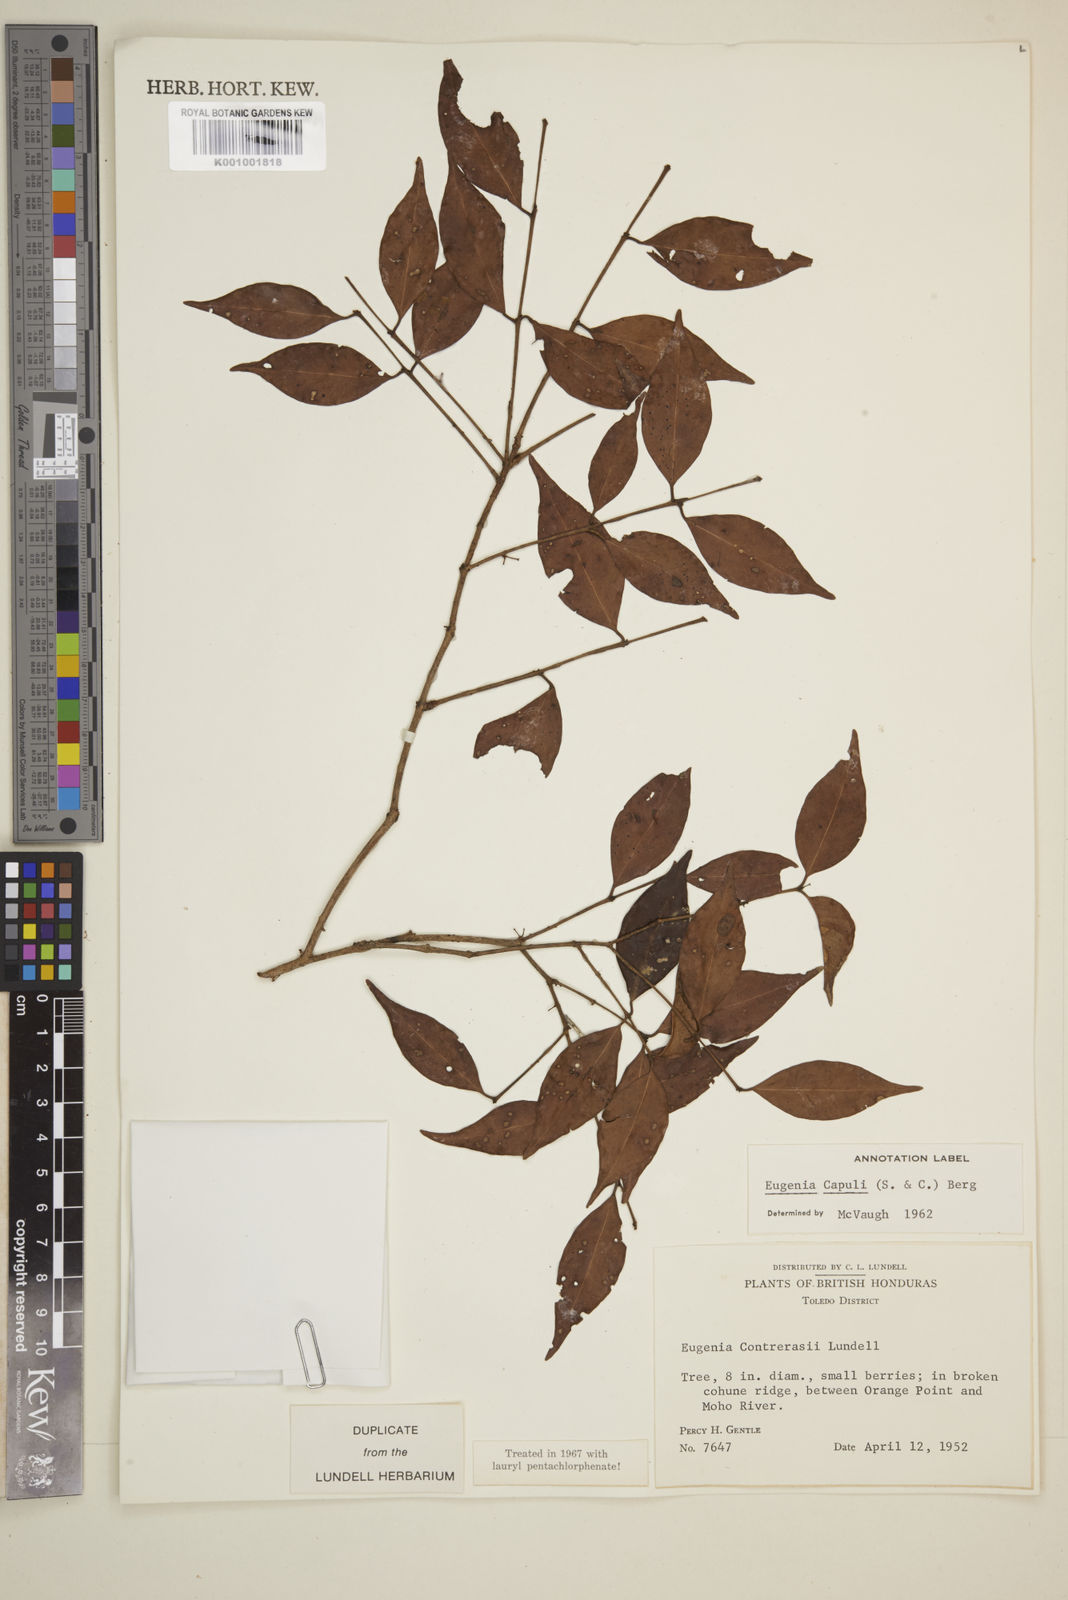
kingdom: Plantae
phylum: Tracheophyta
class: Magnoliopsida
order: Myrtales
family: Myrtaceae
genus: Eugenia
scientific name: Eugenia capuli
